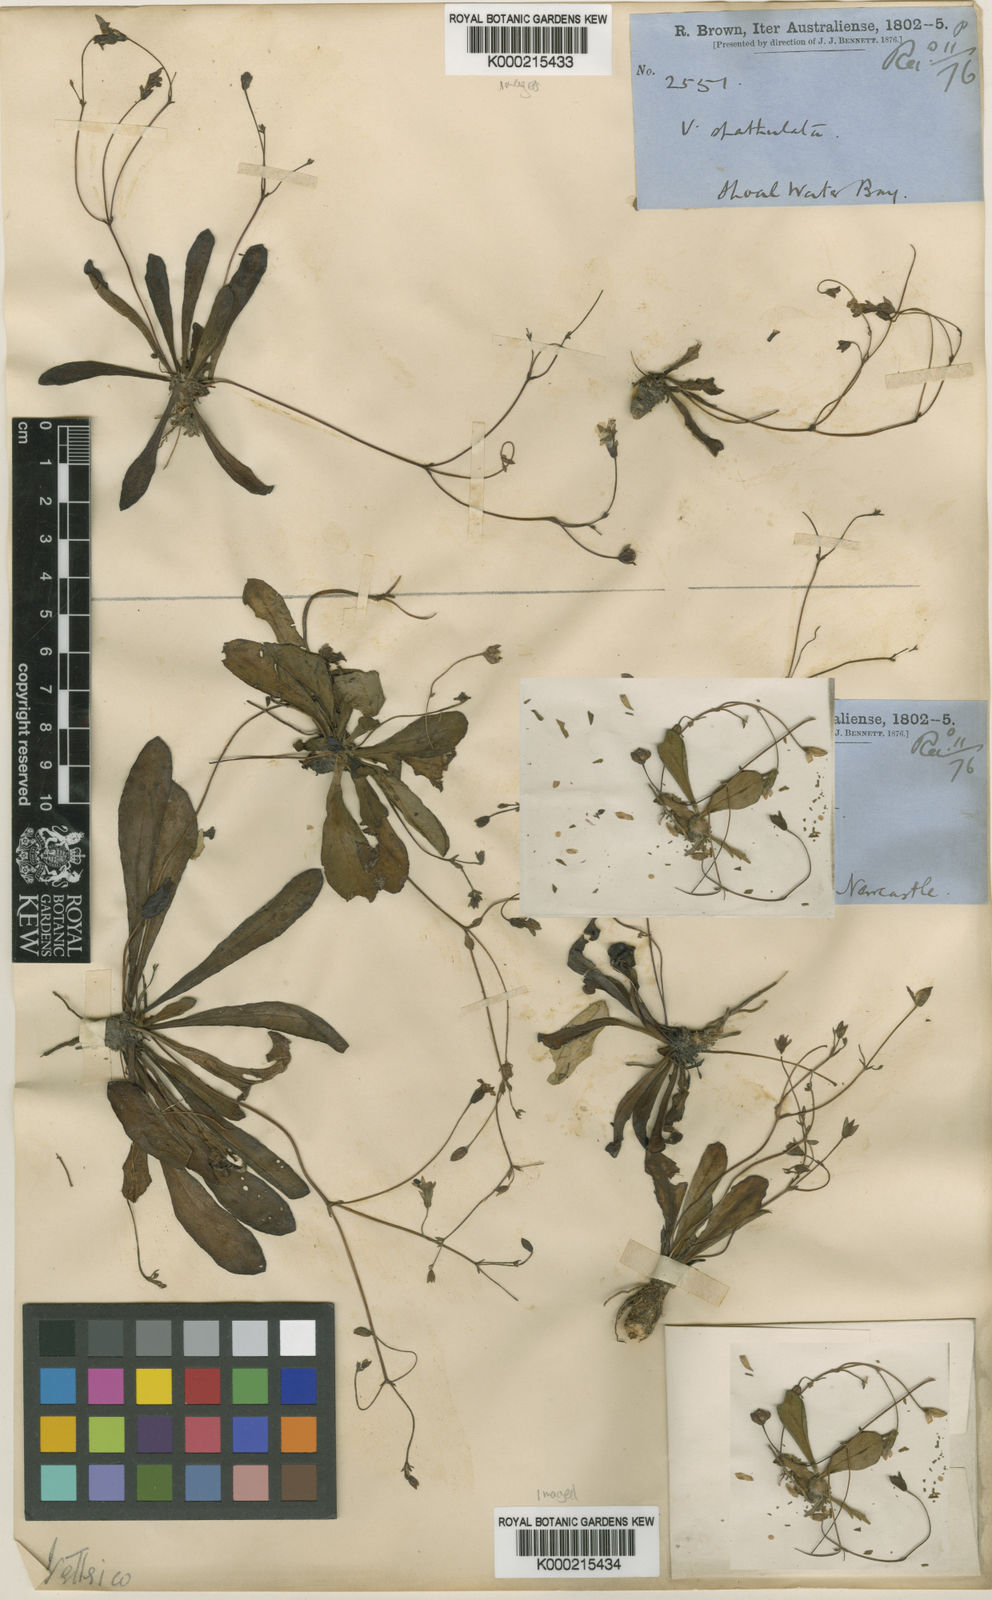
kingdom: Plantae
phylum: Tracheophyta
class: Magnoliopsida
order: Asterales
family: Goodeniaceae
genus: Goodenia
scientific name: Goodenia mystrophylla
